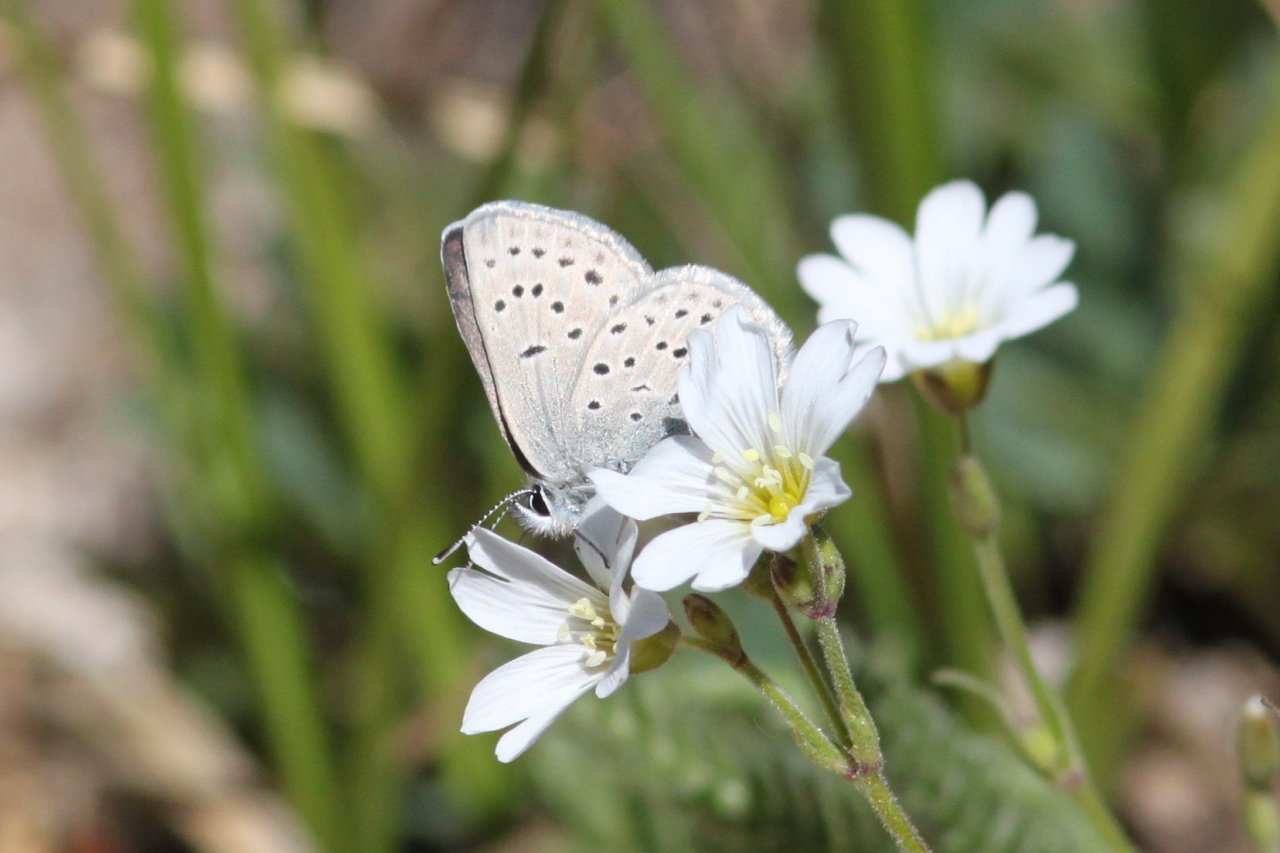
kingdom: Animalia
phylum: Arthropoda
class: Insecta
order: Lepidoptera
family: Lycaenidae
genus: Plebejus
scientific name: Plebejus saepiolus
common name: Greenish Blue
